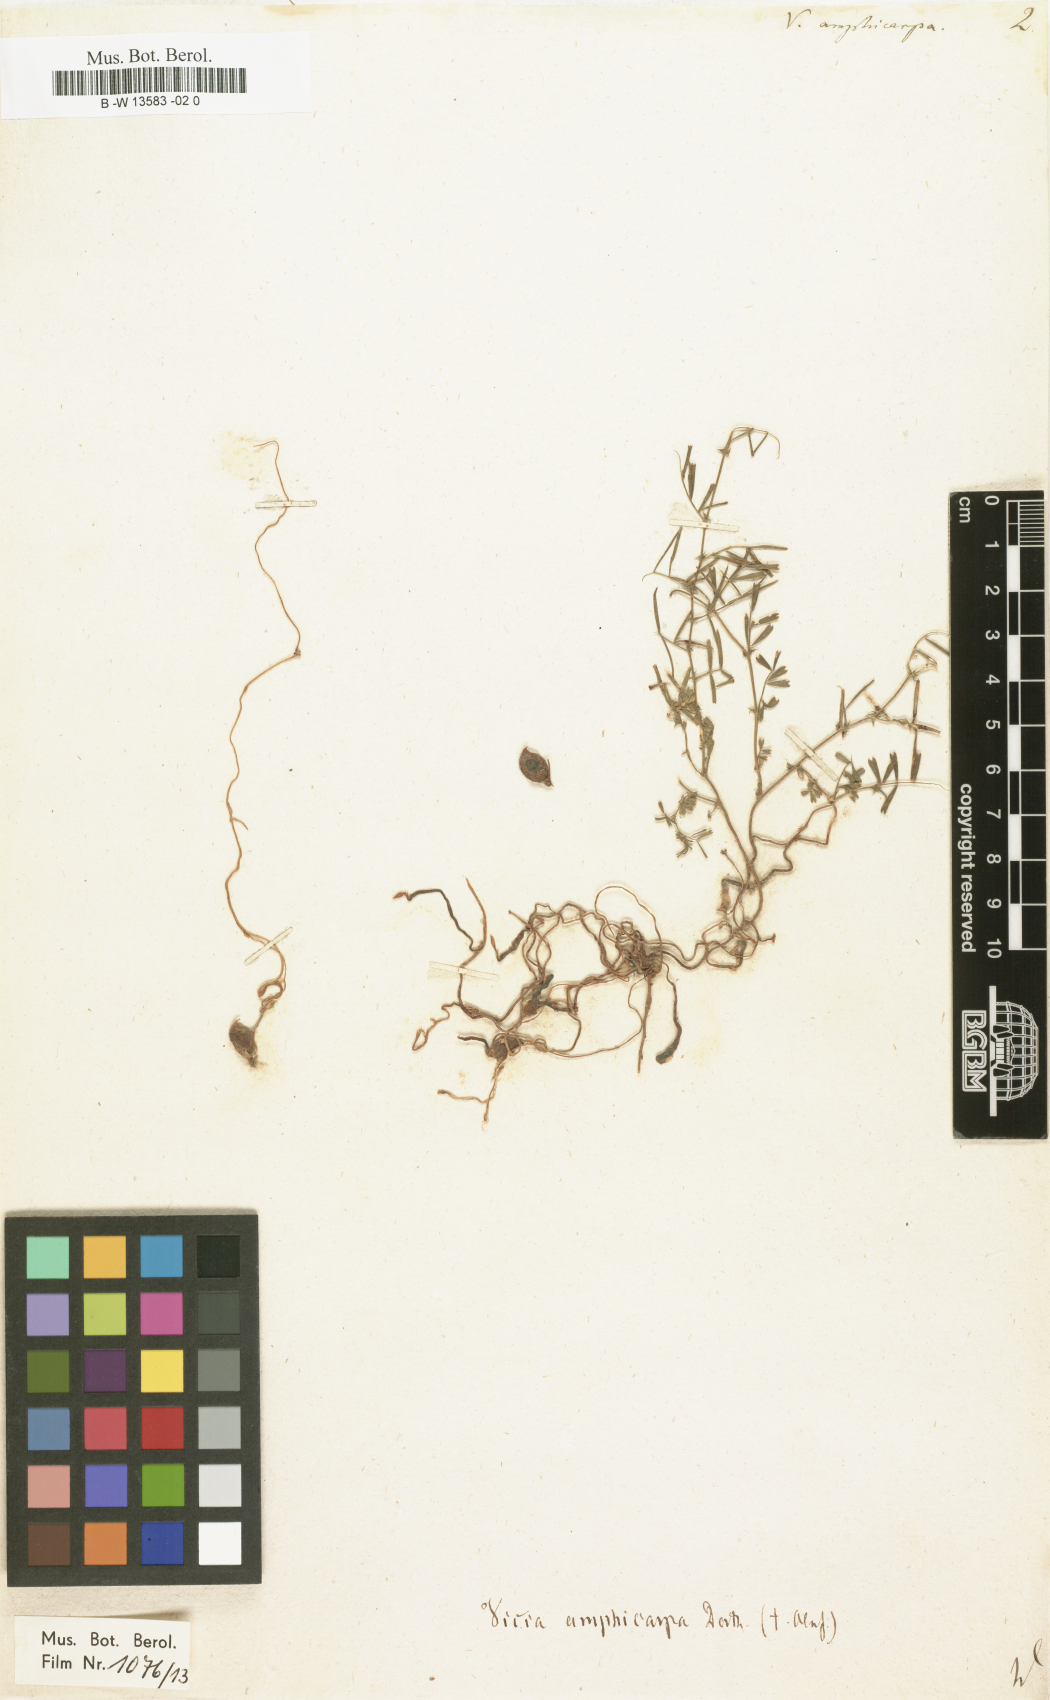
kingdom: Plantae
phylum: Tracheophyta
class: Magnoliopsida
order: Fabales
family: Fabaceae
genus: Vicia
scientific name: Vicia sativa
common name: Garden vetch
